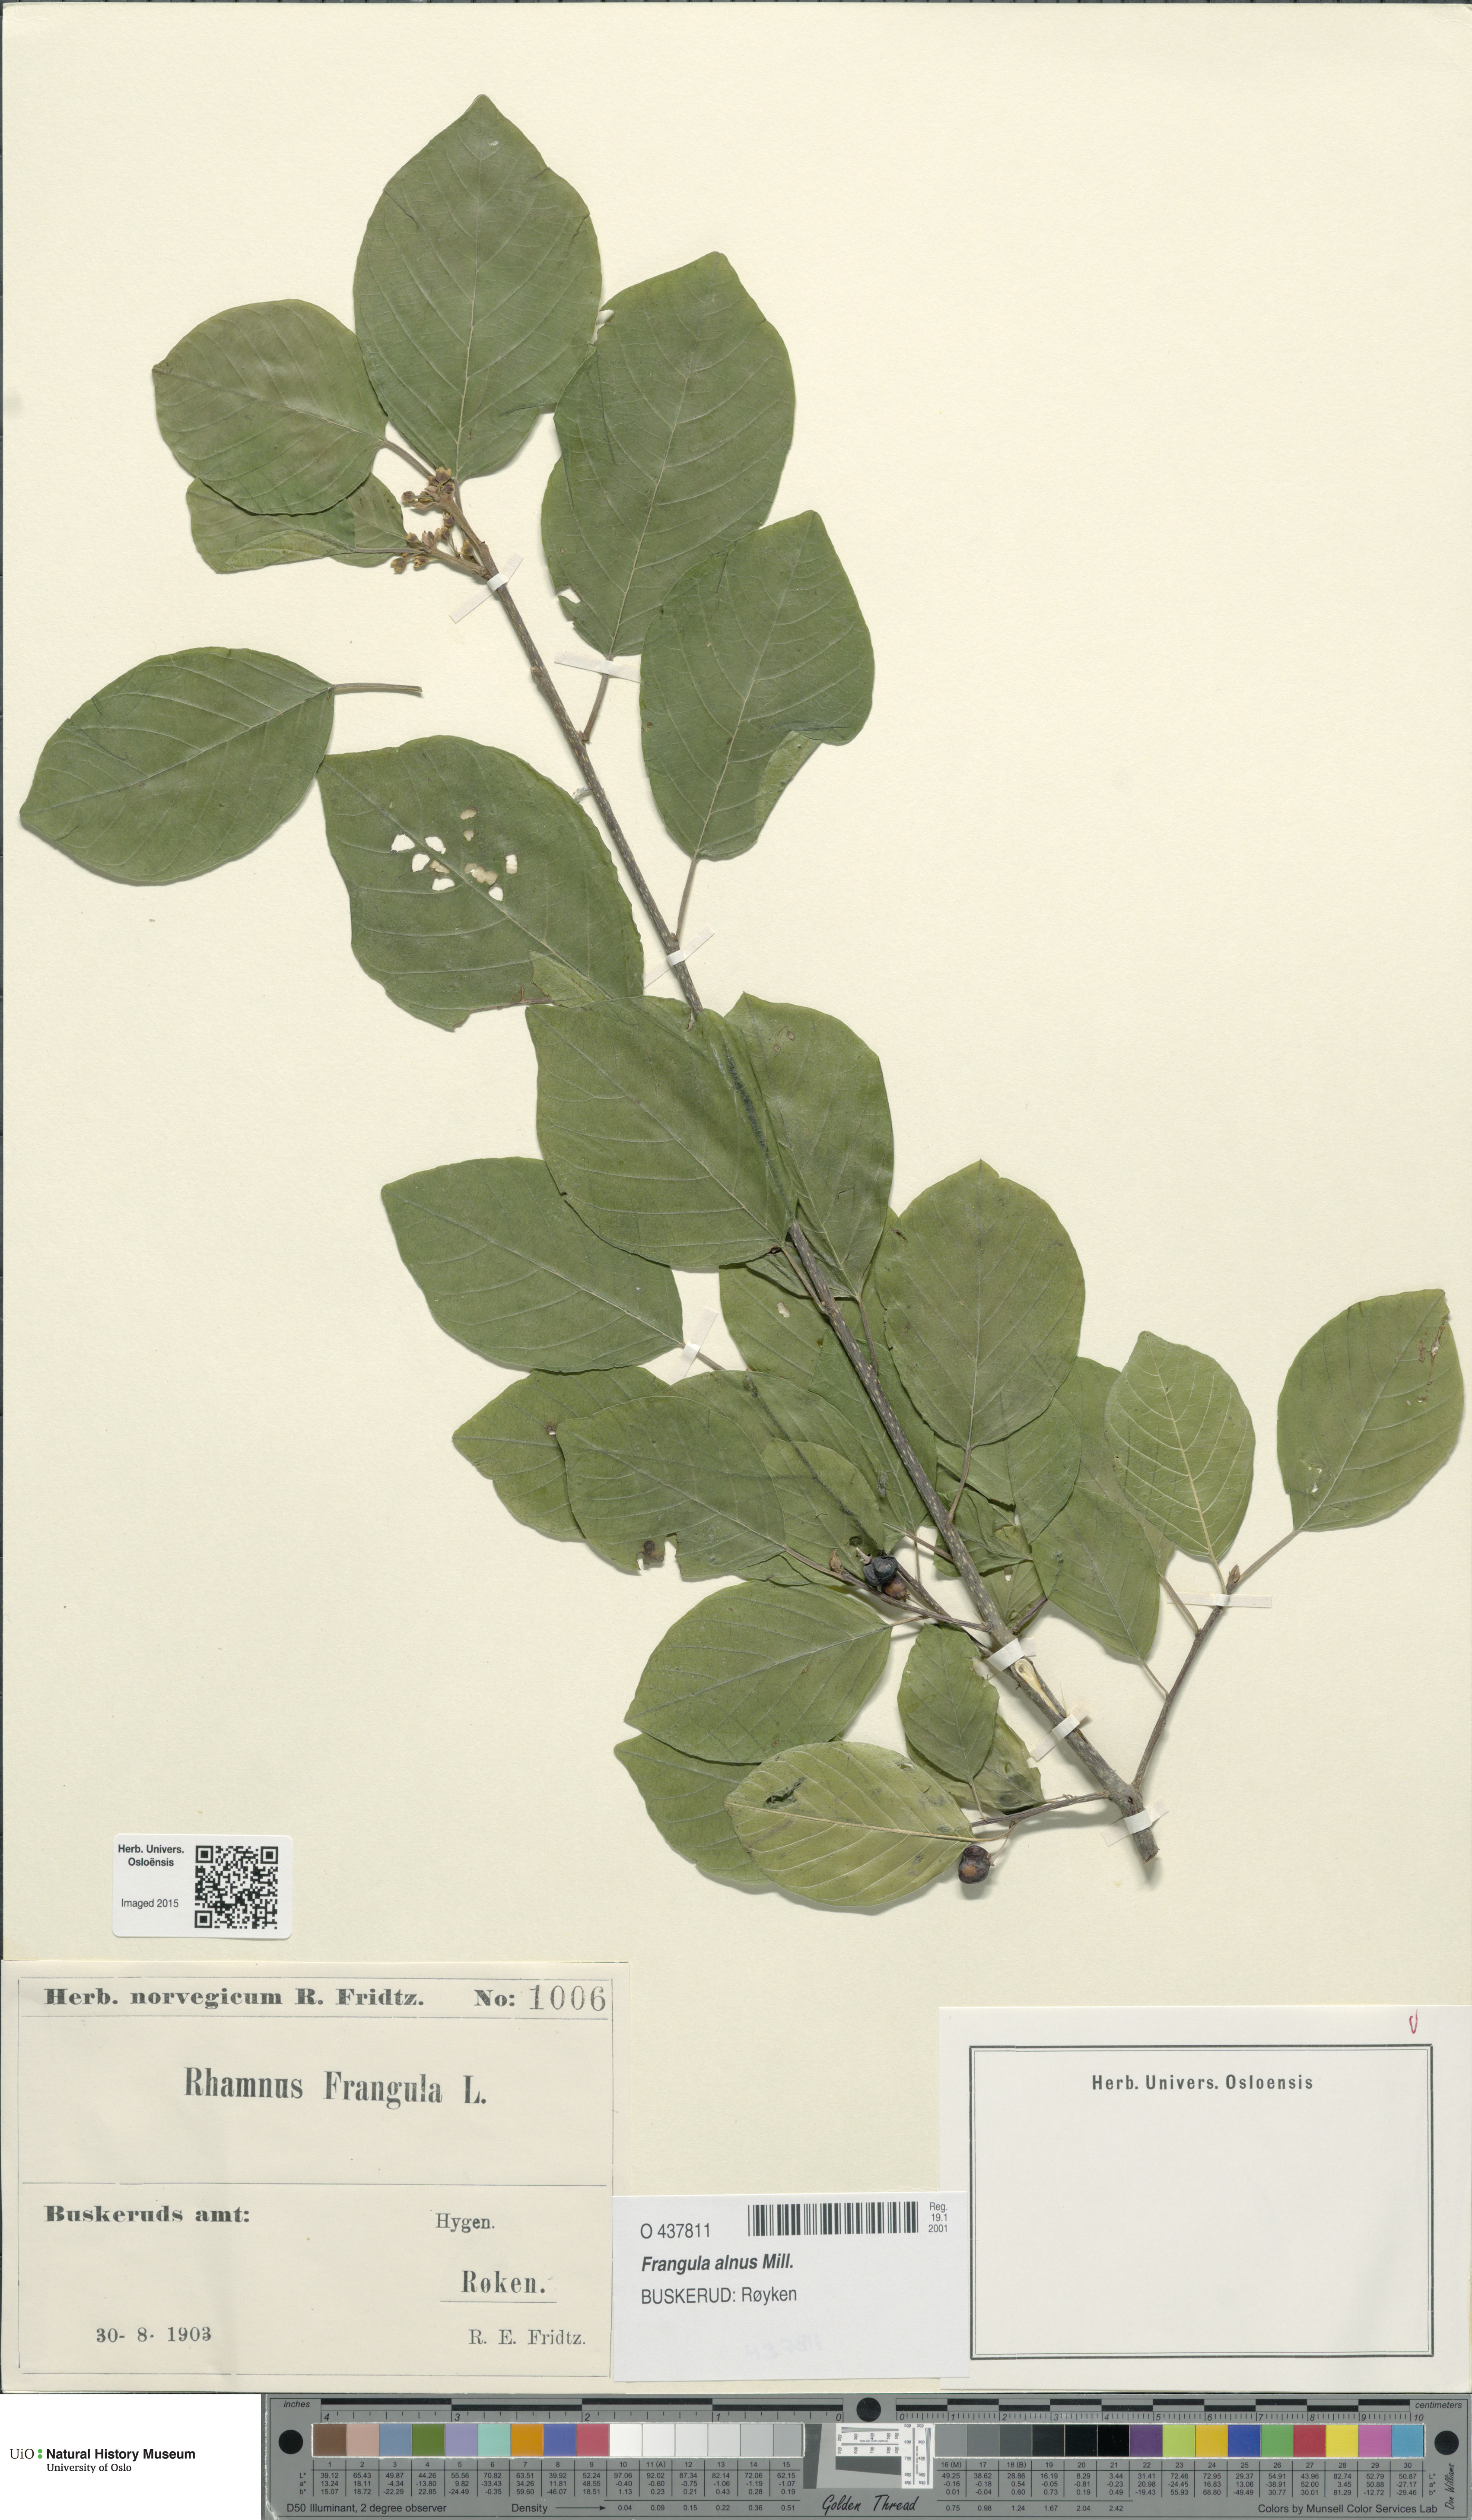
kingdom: Plantae
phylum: Tracheophyta
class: Magnoliopsida
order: Rosales
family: Rhamnaceae
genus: Frangula
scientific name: Frangula alnus
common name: Alder buckthorn
